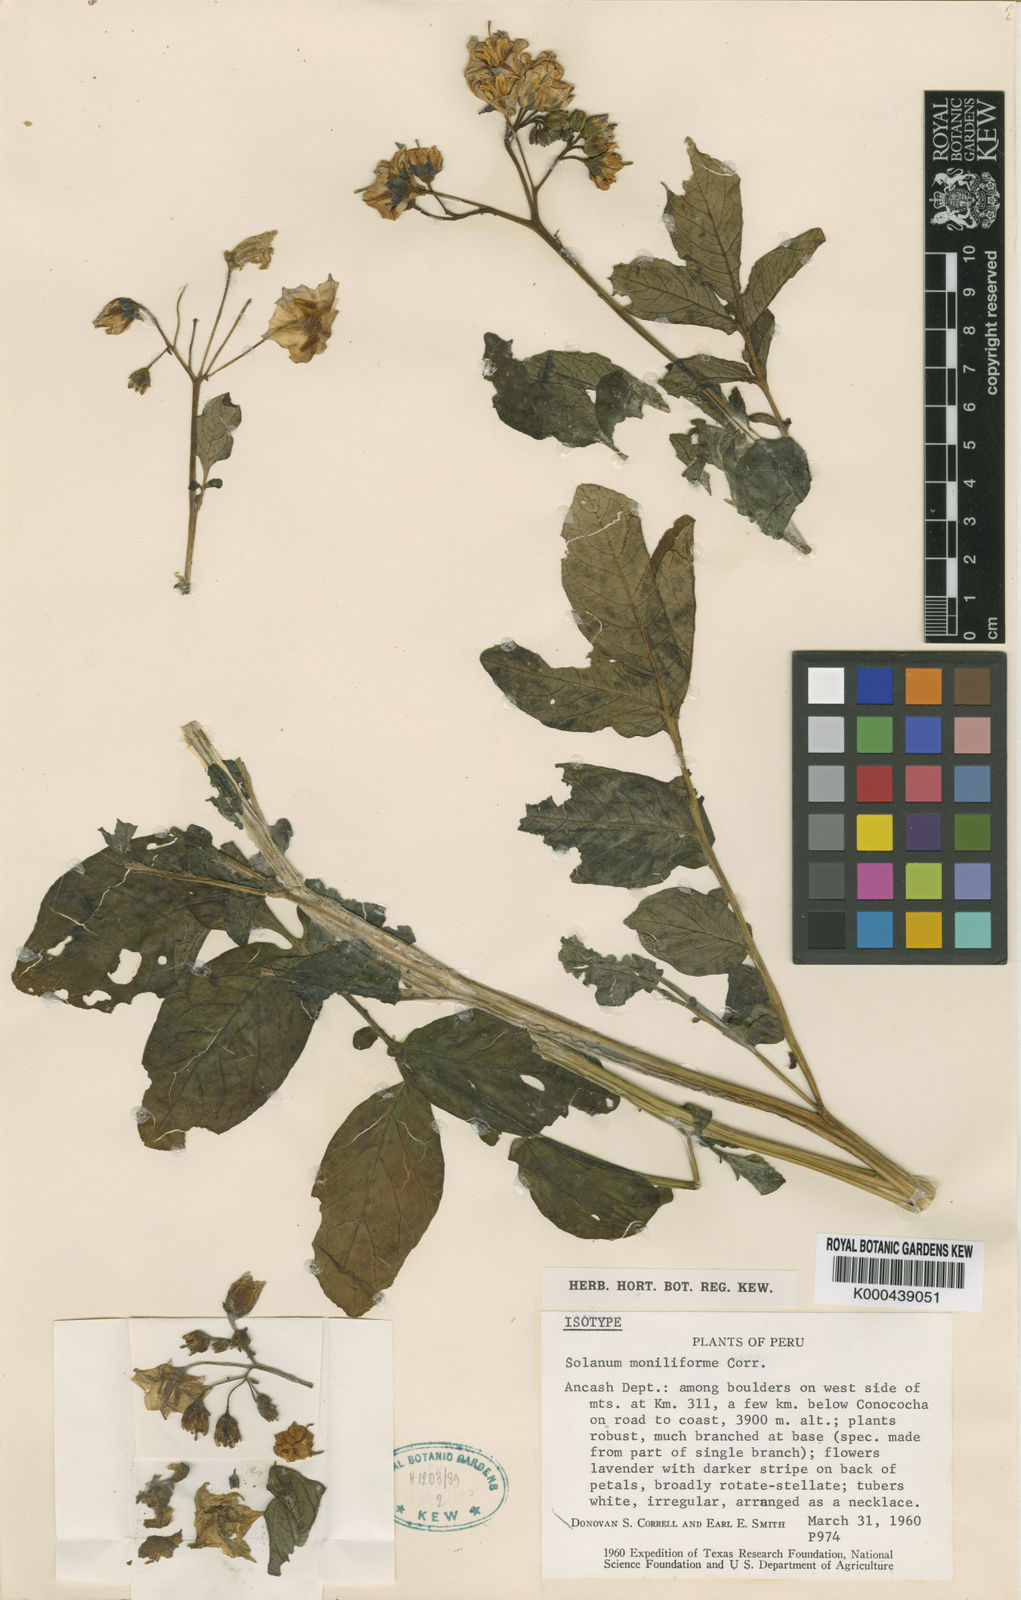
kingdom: Plantae
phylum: Tracheophyta
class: Magnoliopsida
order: Solanales
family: Solanaceae
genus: Solanum
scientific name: Solanum multiinterruptum
